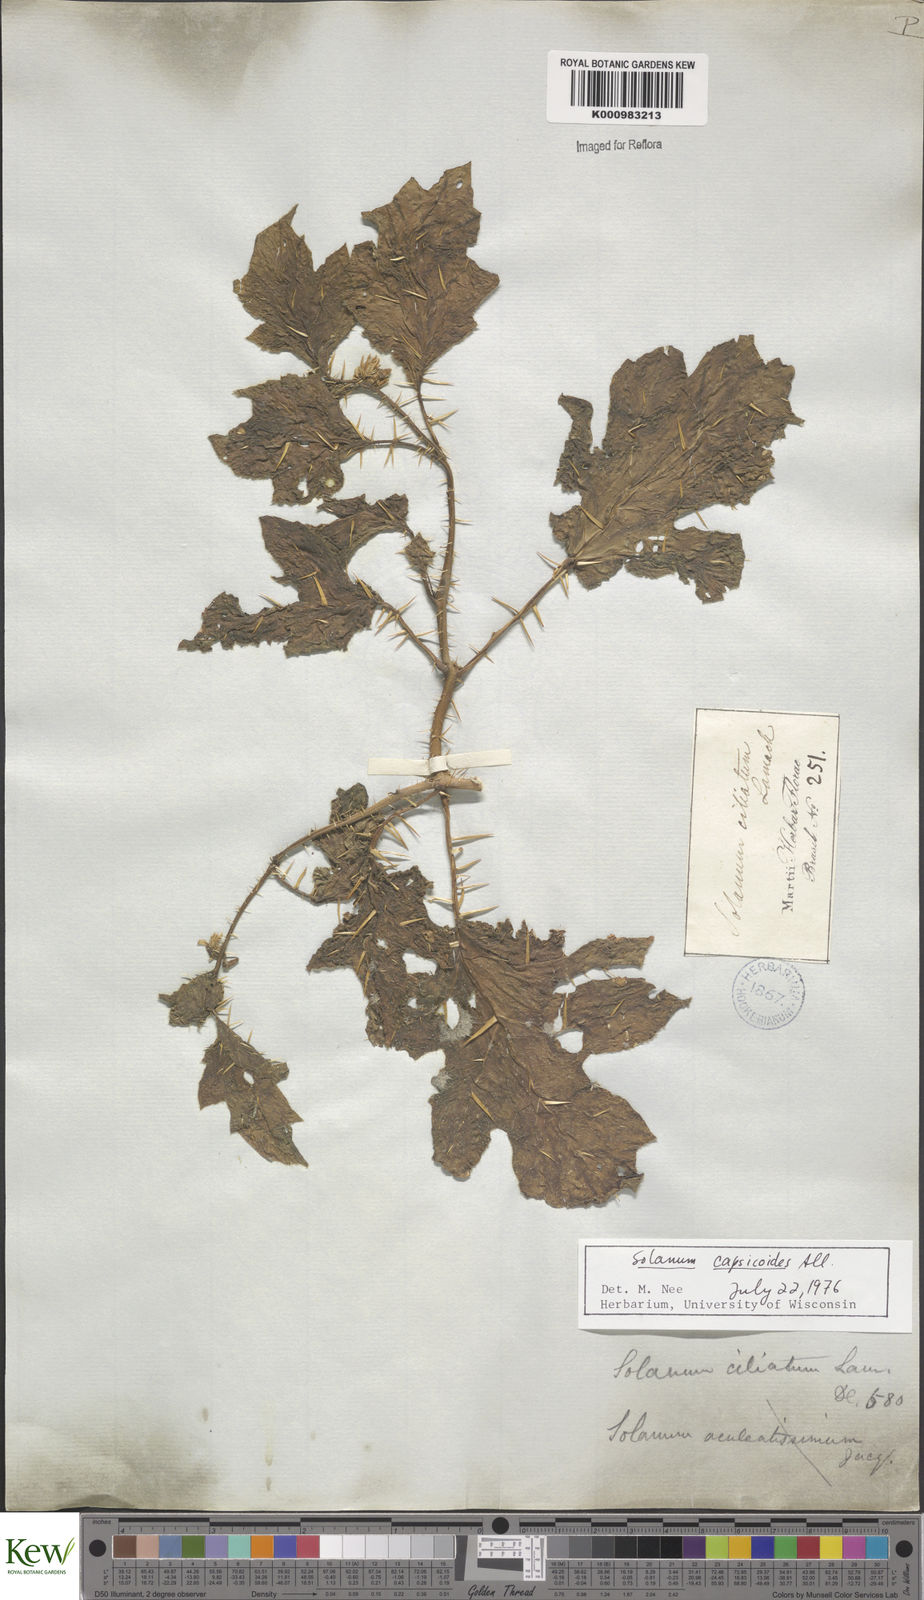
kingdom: Plantae
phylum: Tracheophyta
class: Magnoliopsida
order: Solanales
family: Solanaceae
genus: Solanum
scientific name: Solanum capsicoides
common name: Cockroach berry
